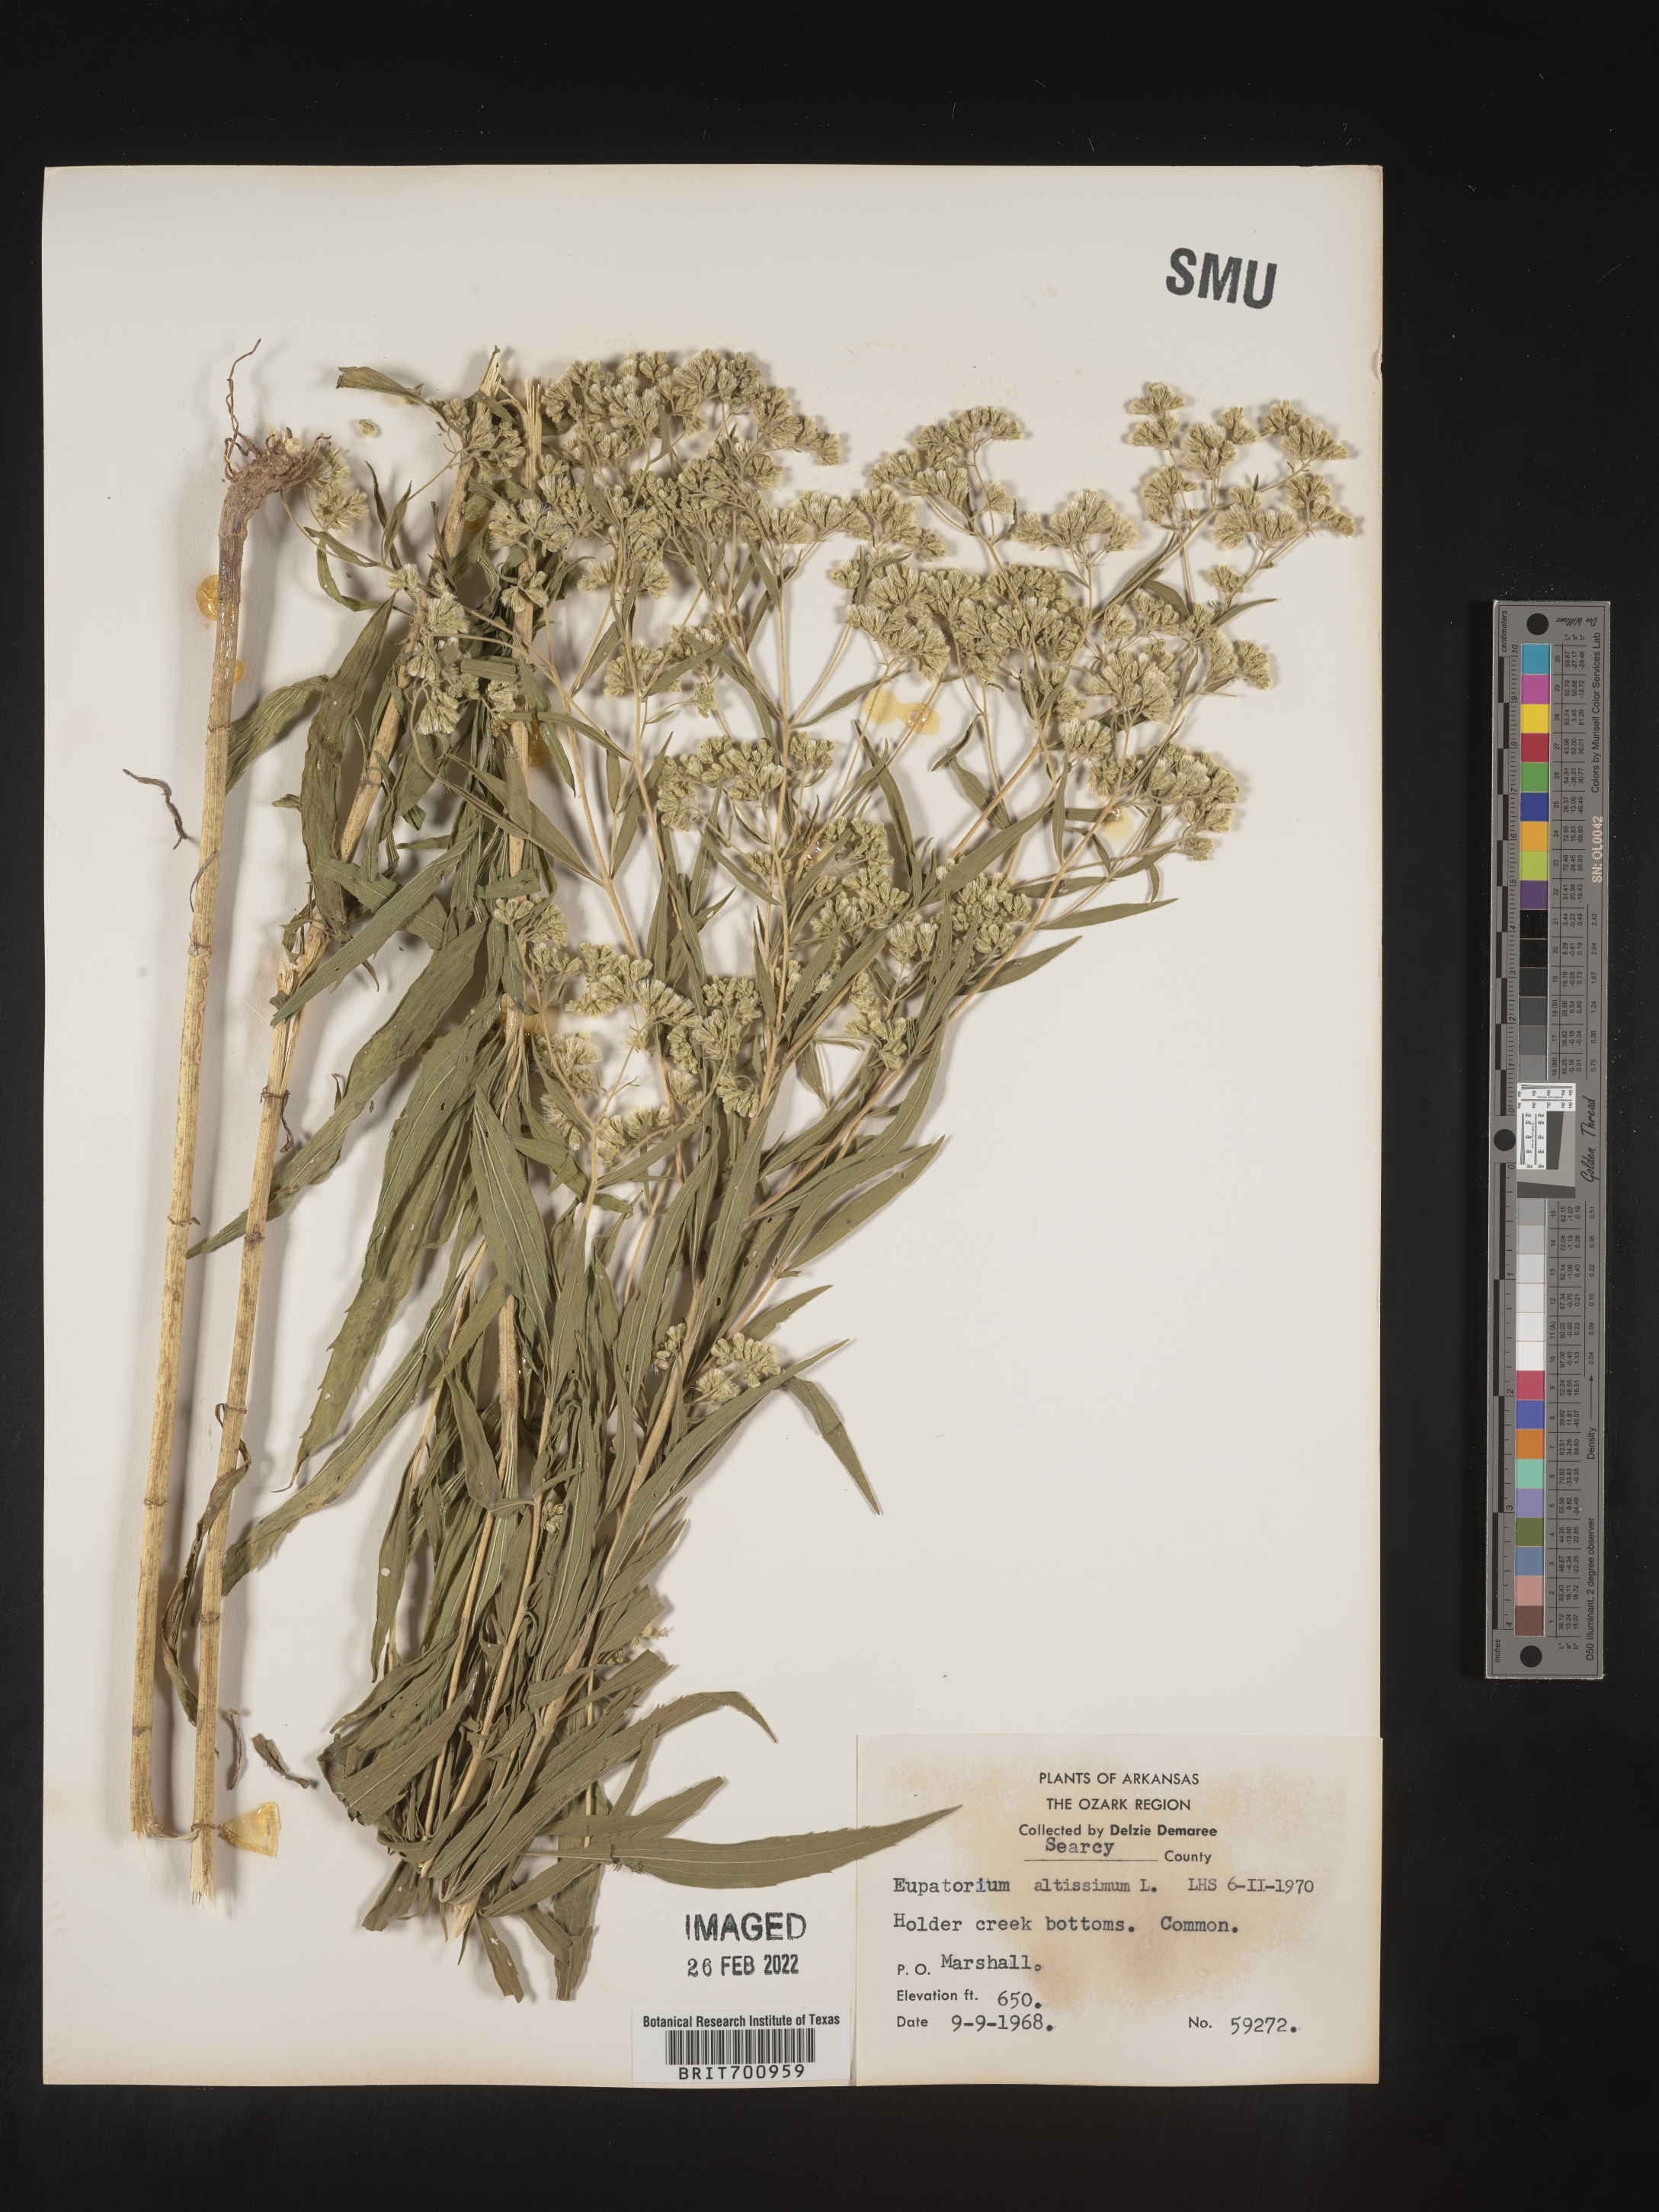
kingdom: Plantae
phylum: Tracheophyta
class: Magnoliopsida
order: Asterales
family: Asteraceae
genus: Eupatorium
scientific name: Eupatorium altissimum
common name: Tall thoroughwort
